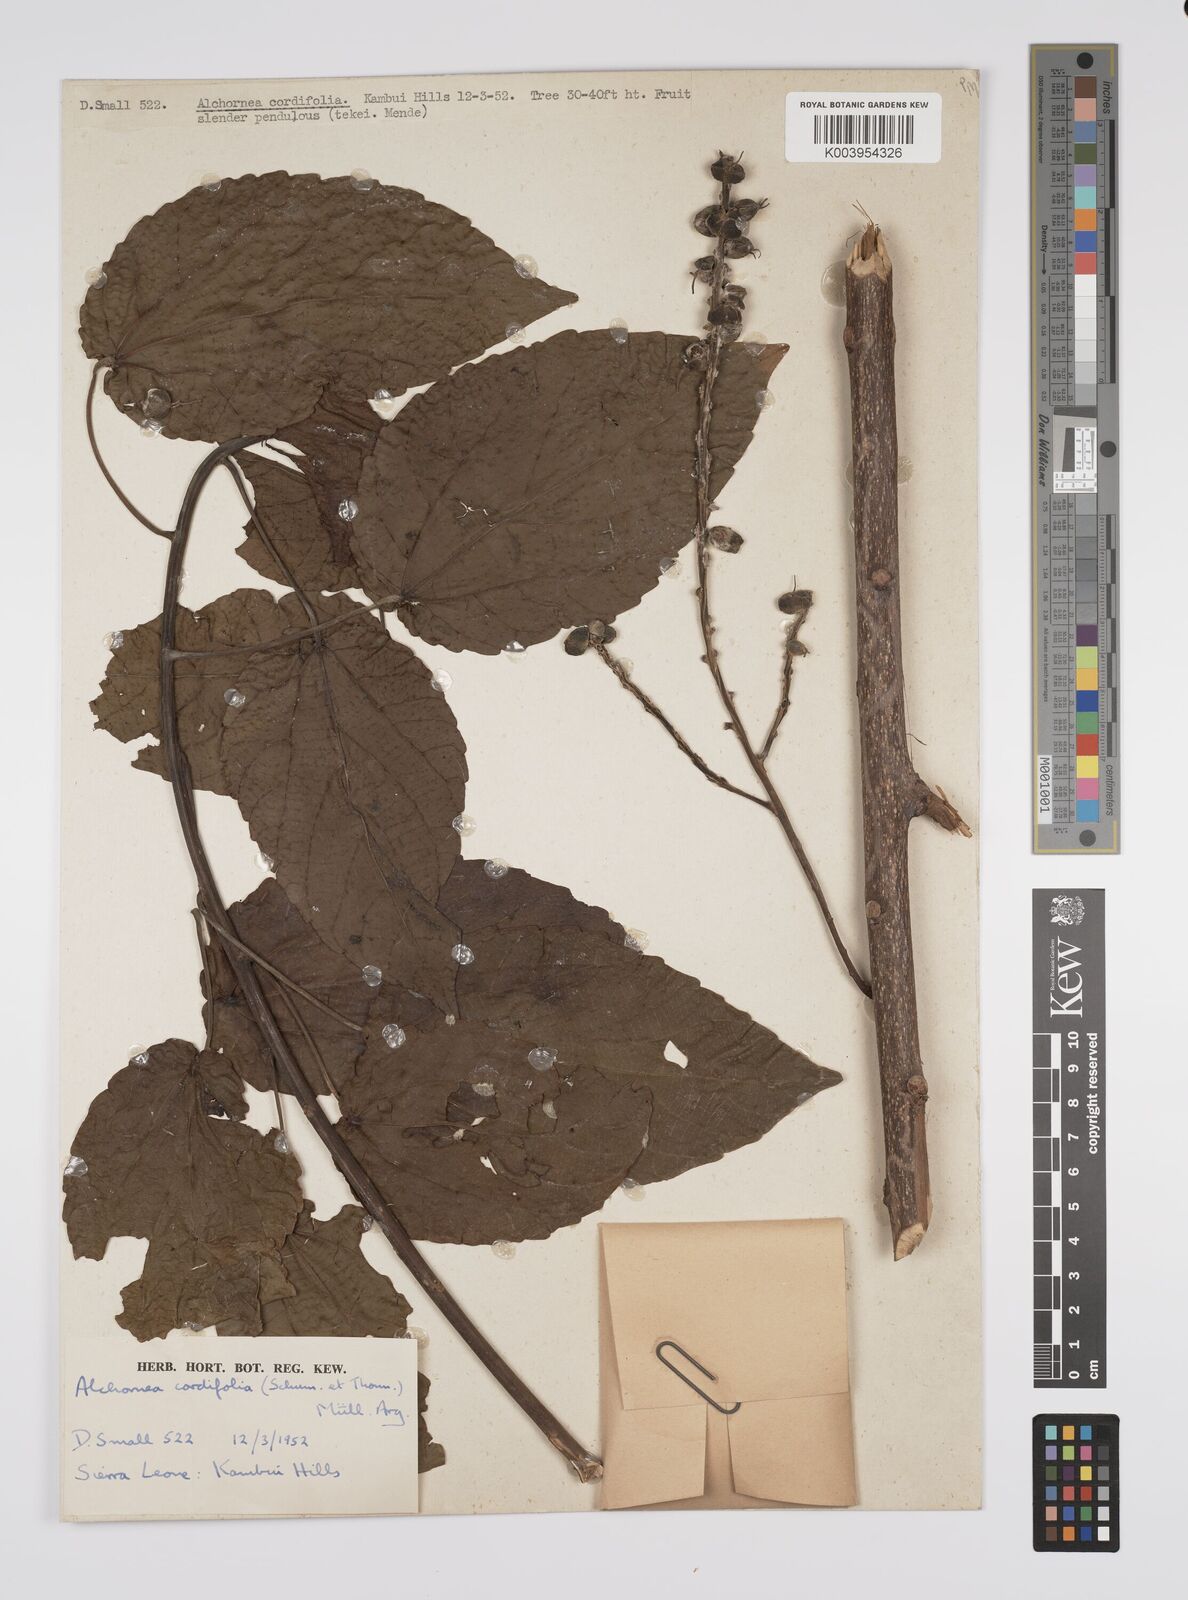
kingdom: Plantae
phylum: Tracheophyta
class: Magnoliopsida
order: Malpighiales
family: Euphorbiaceae
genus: Alchornea
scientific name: Alchornea cordifolia
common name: Christmasbush
